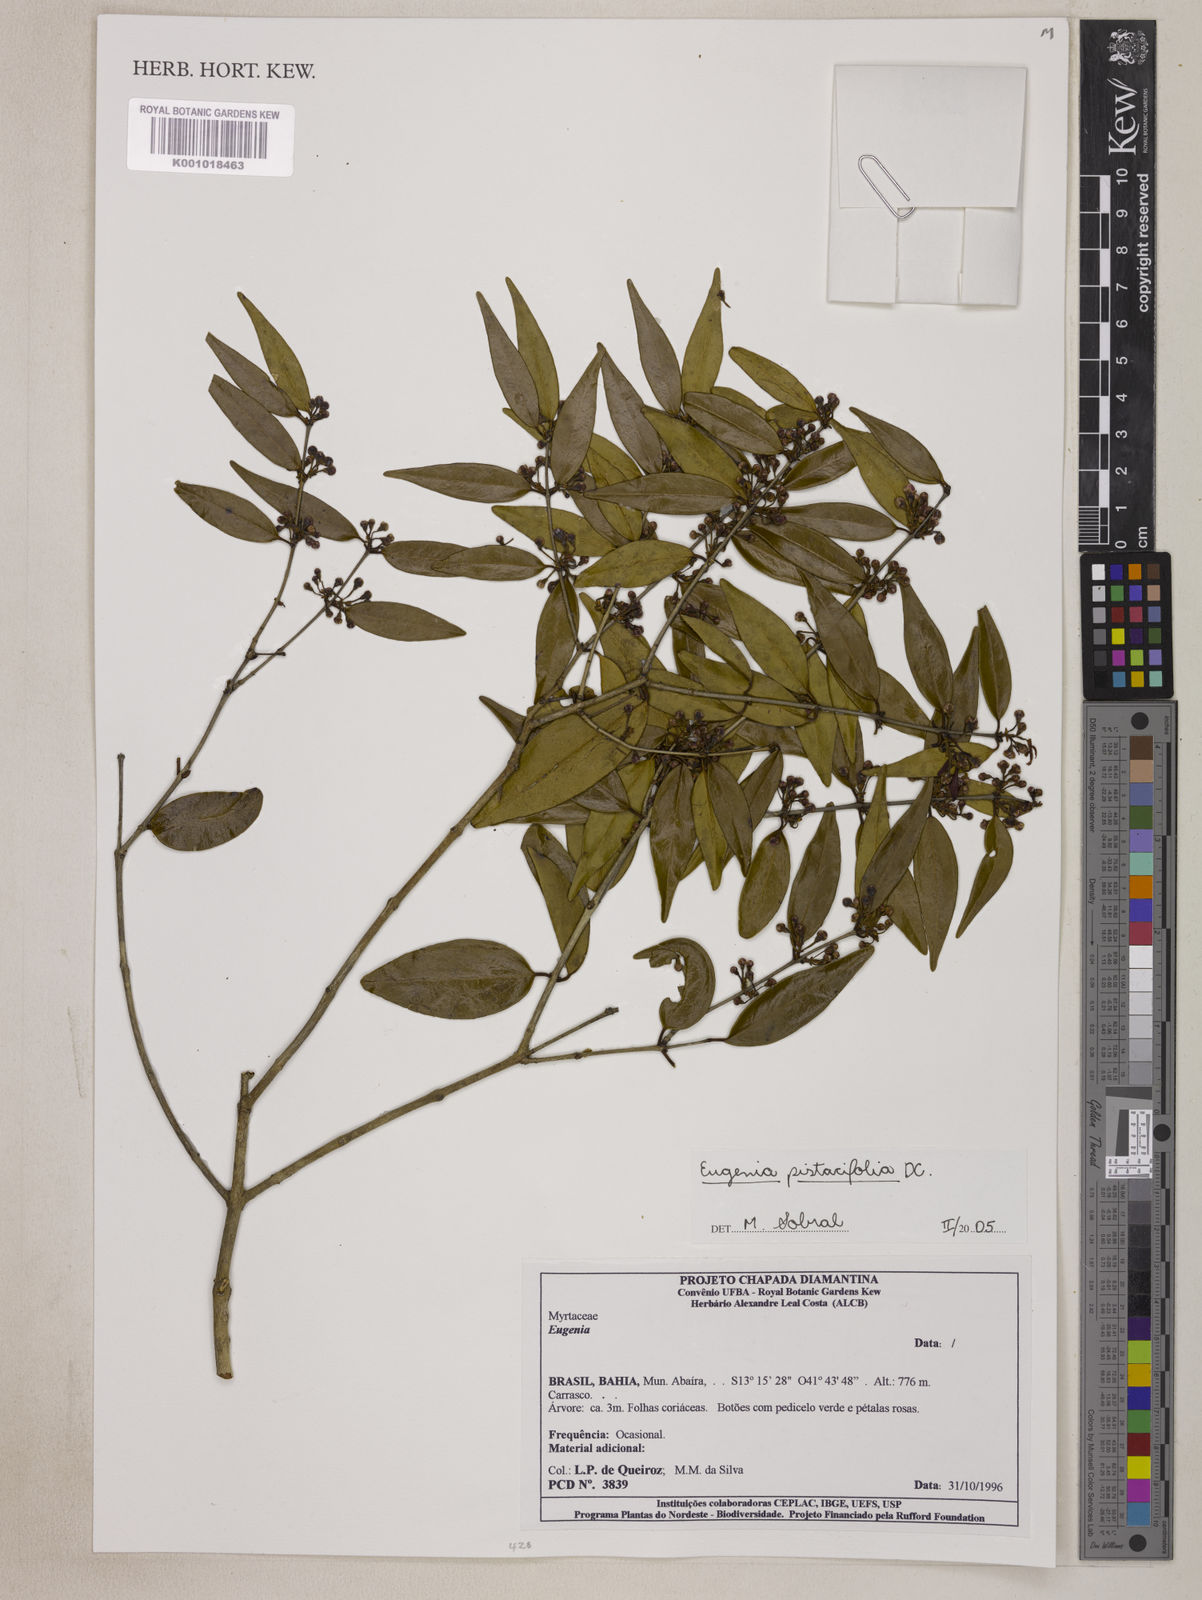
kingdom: Plantae
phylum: Tracheophyta
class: Magnoliopsida
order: Myrtales
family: Myrtaceae
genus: Eugenia
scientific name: Eugenia pistaciifolia
